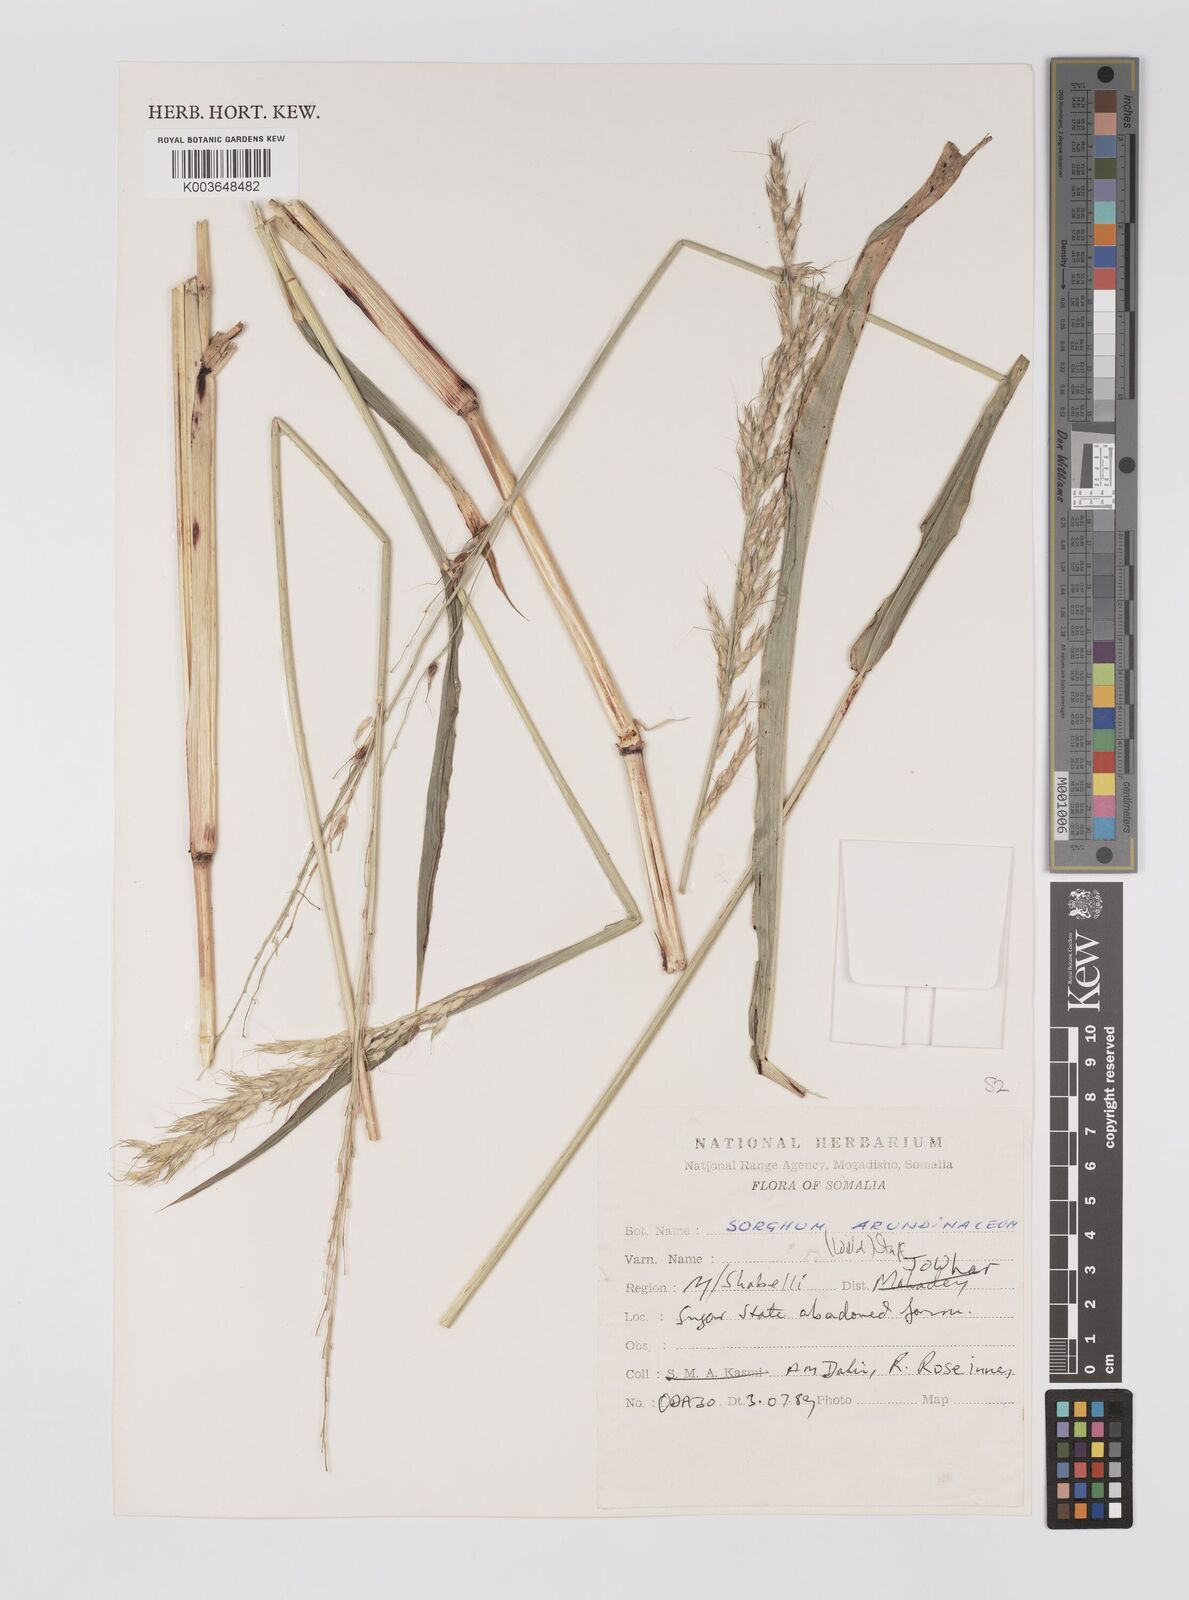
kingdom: Plantae
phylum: Tracheophyta
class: Liliopsida
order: Poales
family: Poaceae
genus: Sorghum
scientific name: Sorghum arundinaceum
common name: Sorghum
